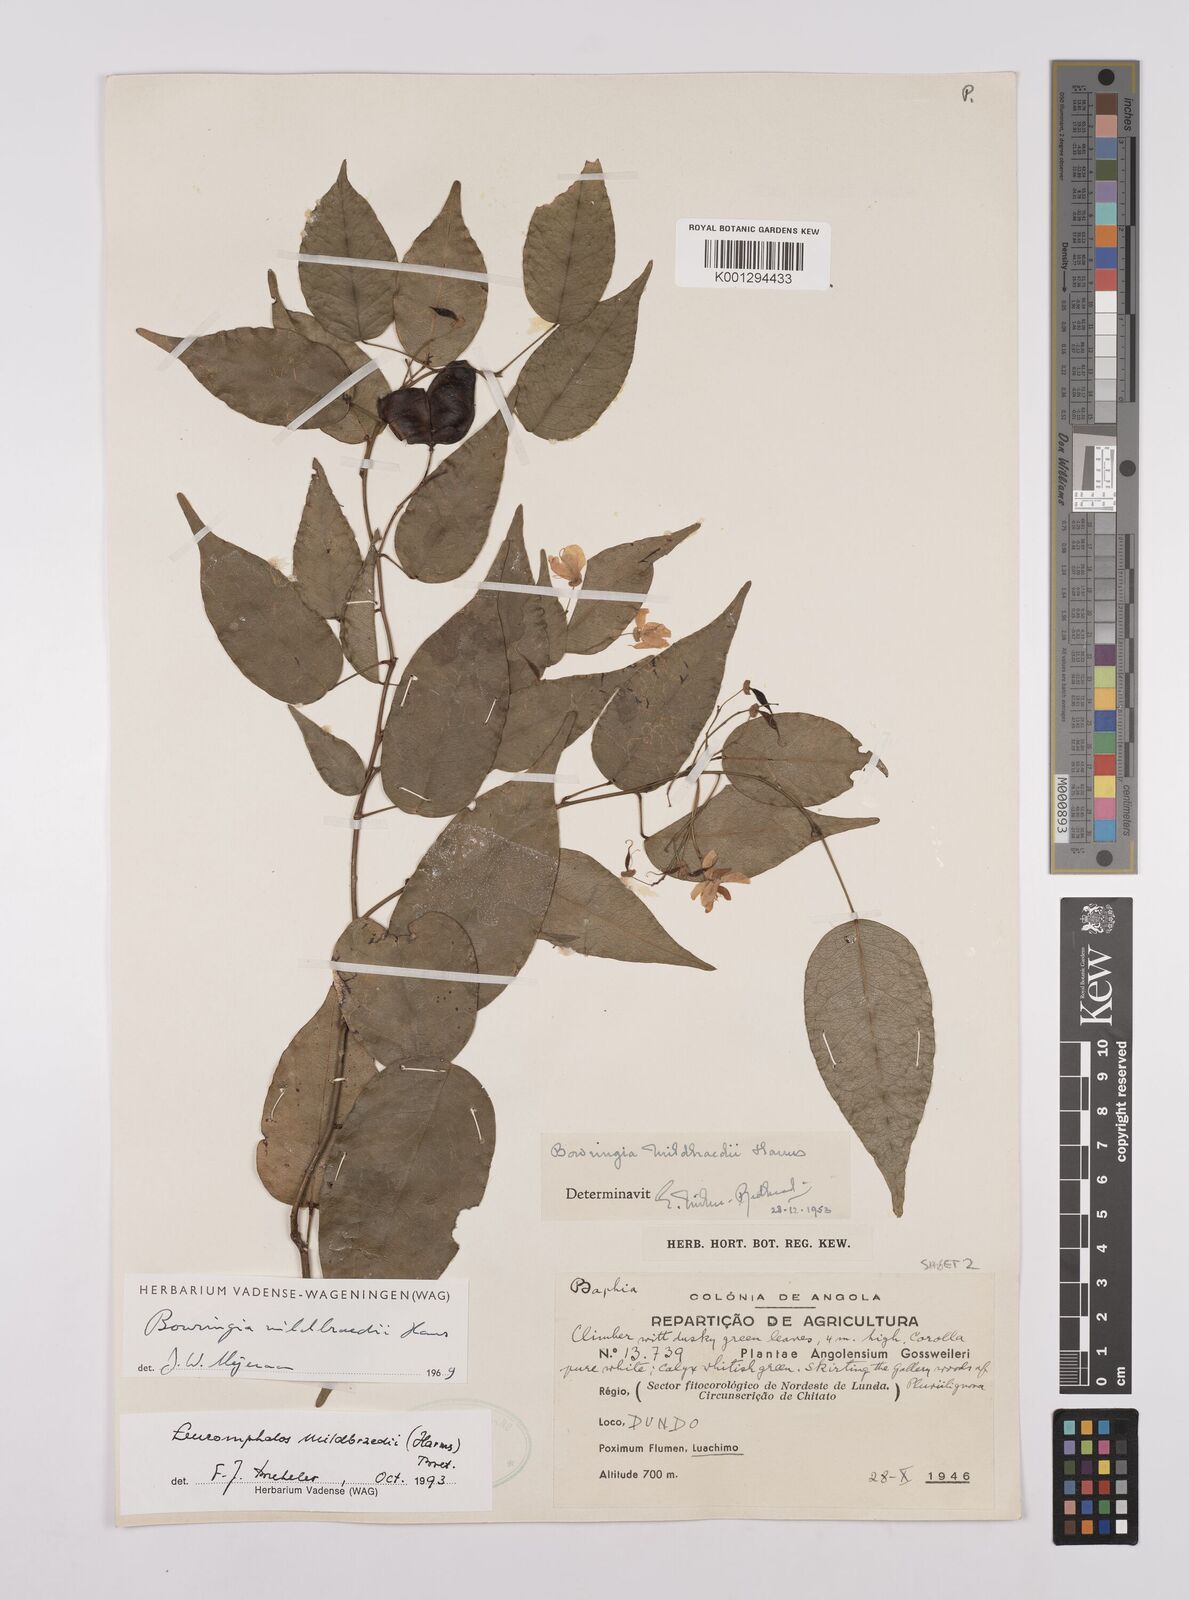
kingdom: Plantae
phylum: Tracheophyta
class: Magnoliopsida
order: Fabales
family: Fabaceae
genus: Bowringia
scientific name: Bowringia mildbraedii
